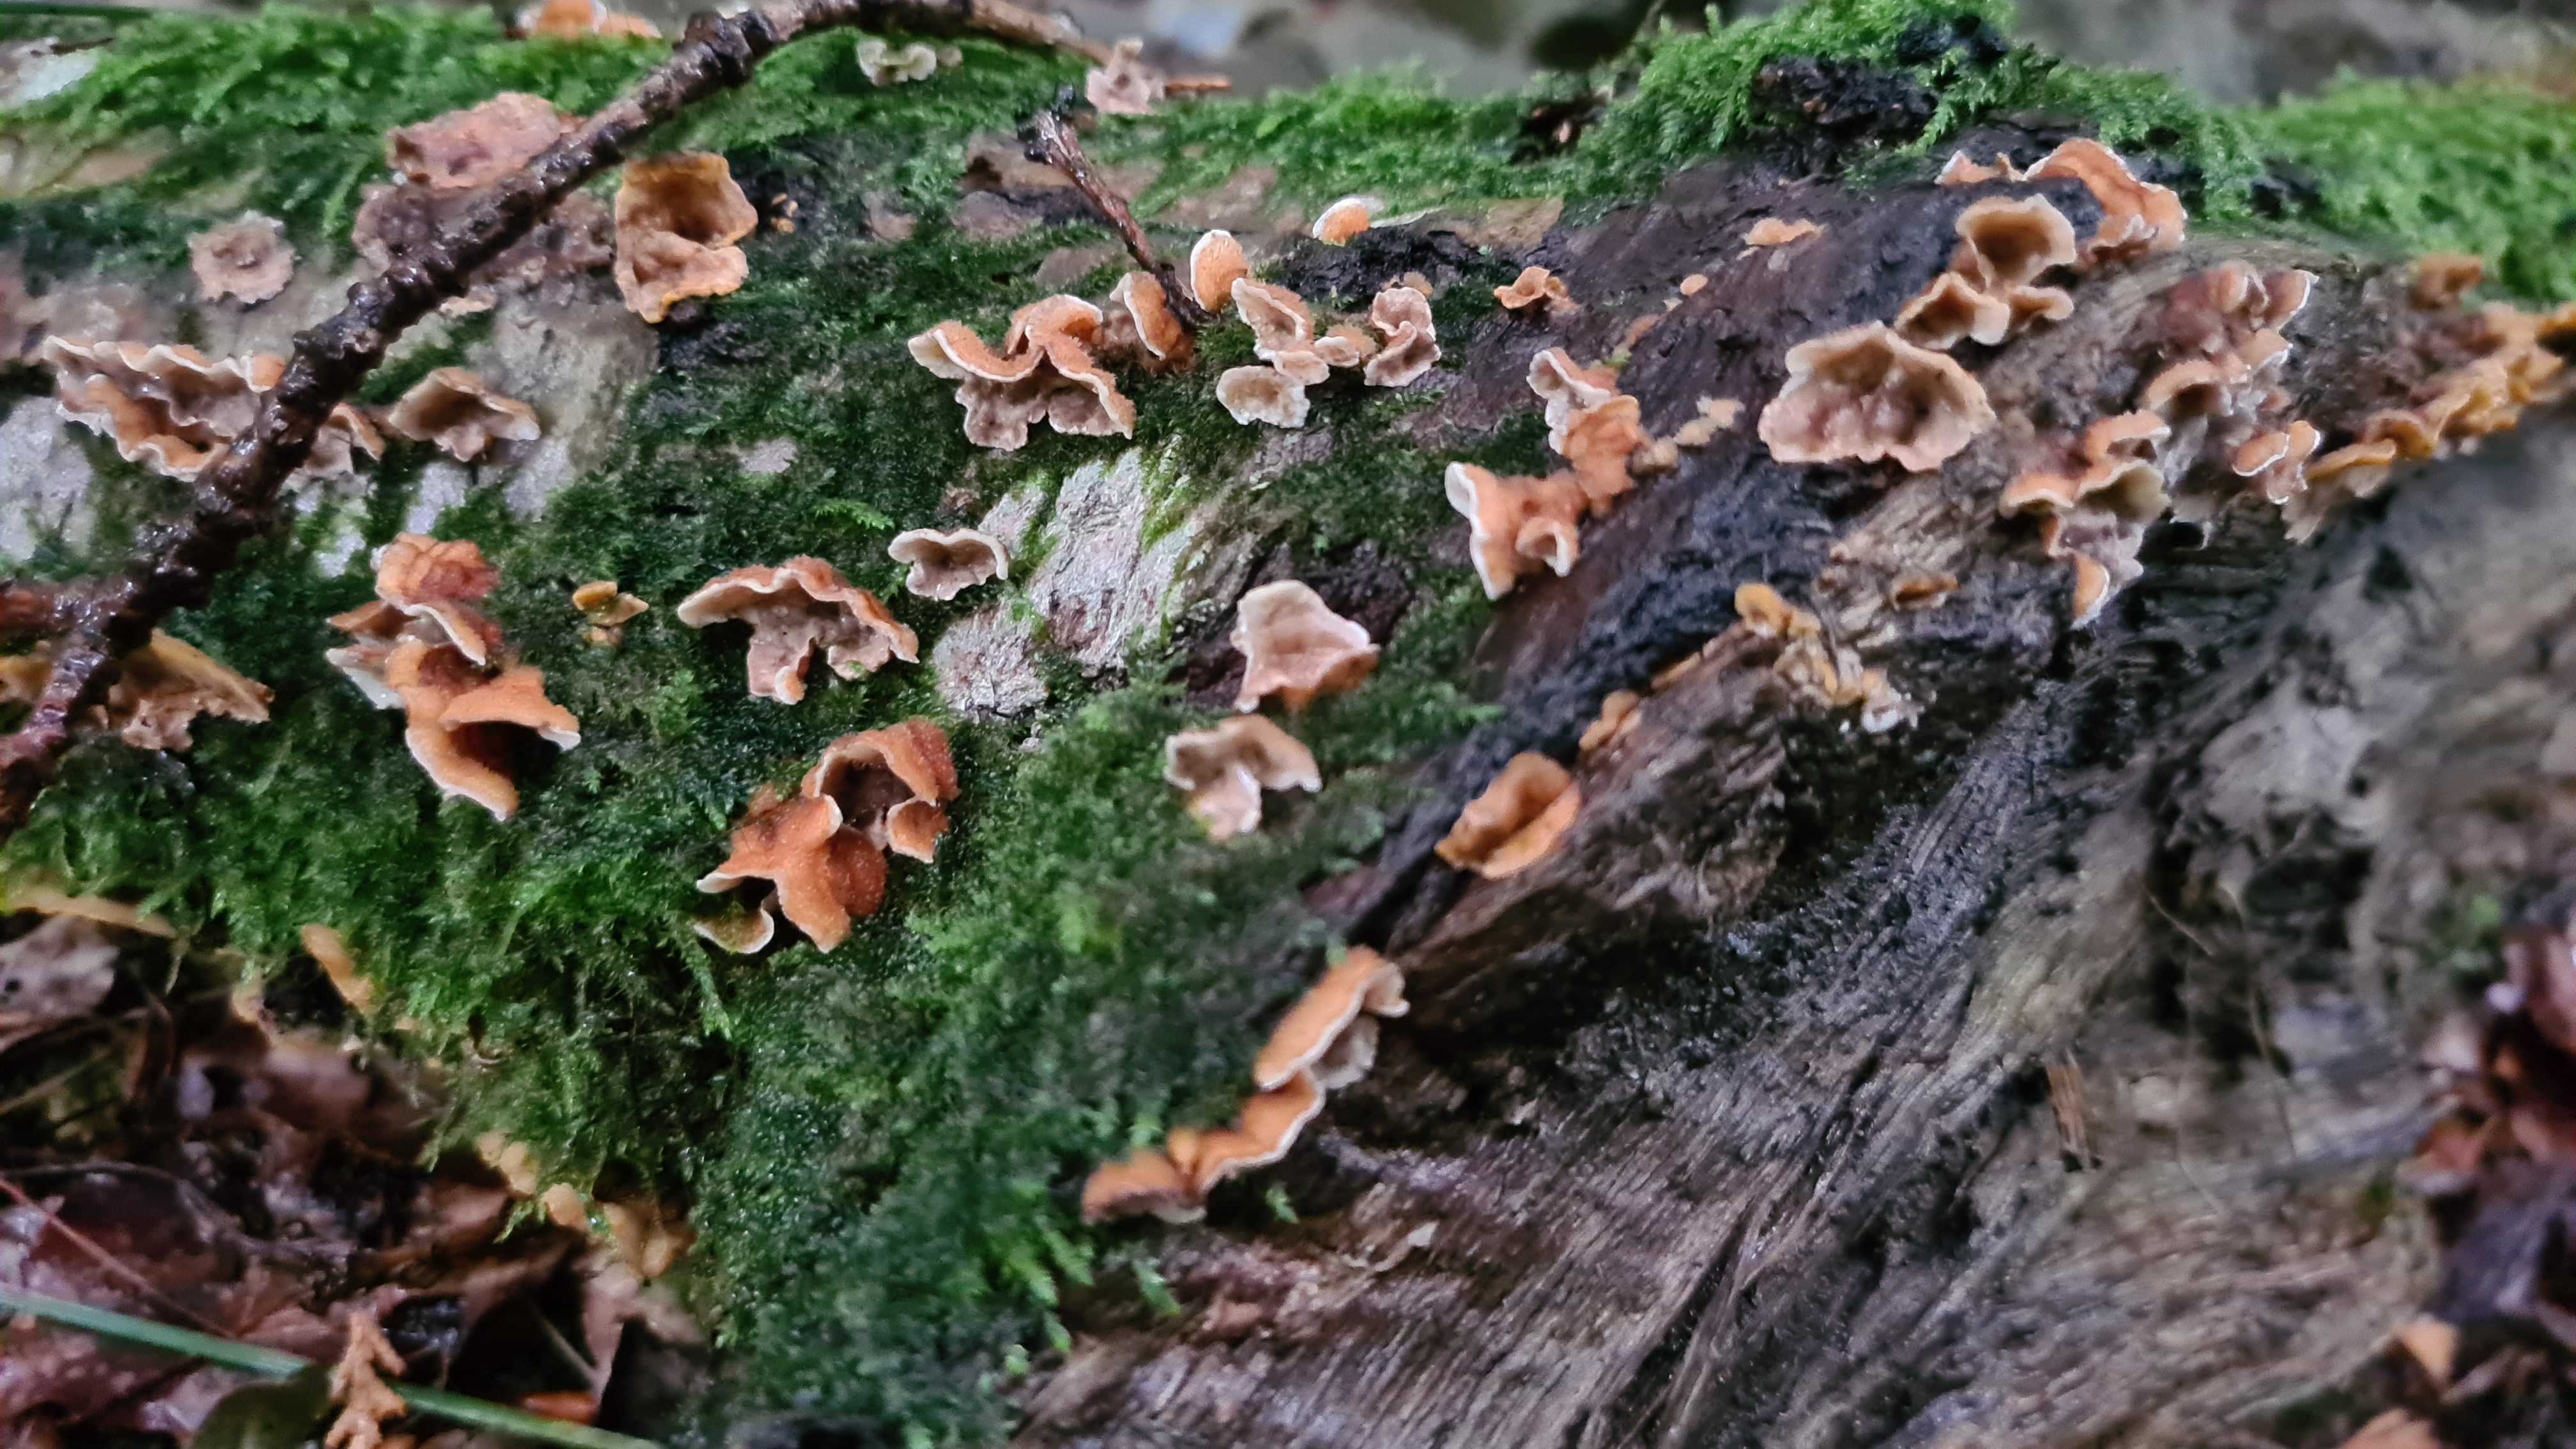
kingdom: Fungi
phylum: Basidiomycota
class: Agaricomycetes
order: Russulales
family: Stereaceae
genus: Stereum
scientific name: Stereum hirsutum
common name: håret lædersvamp
